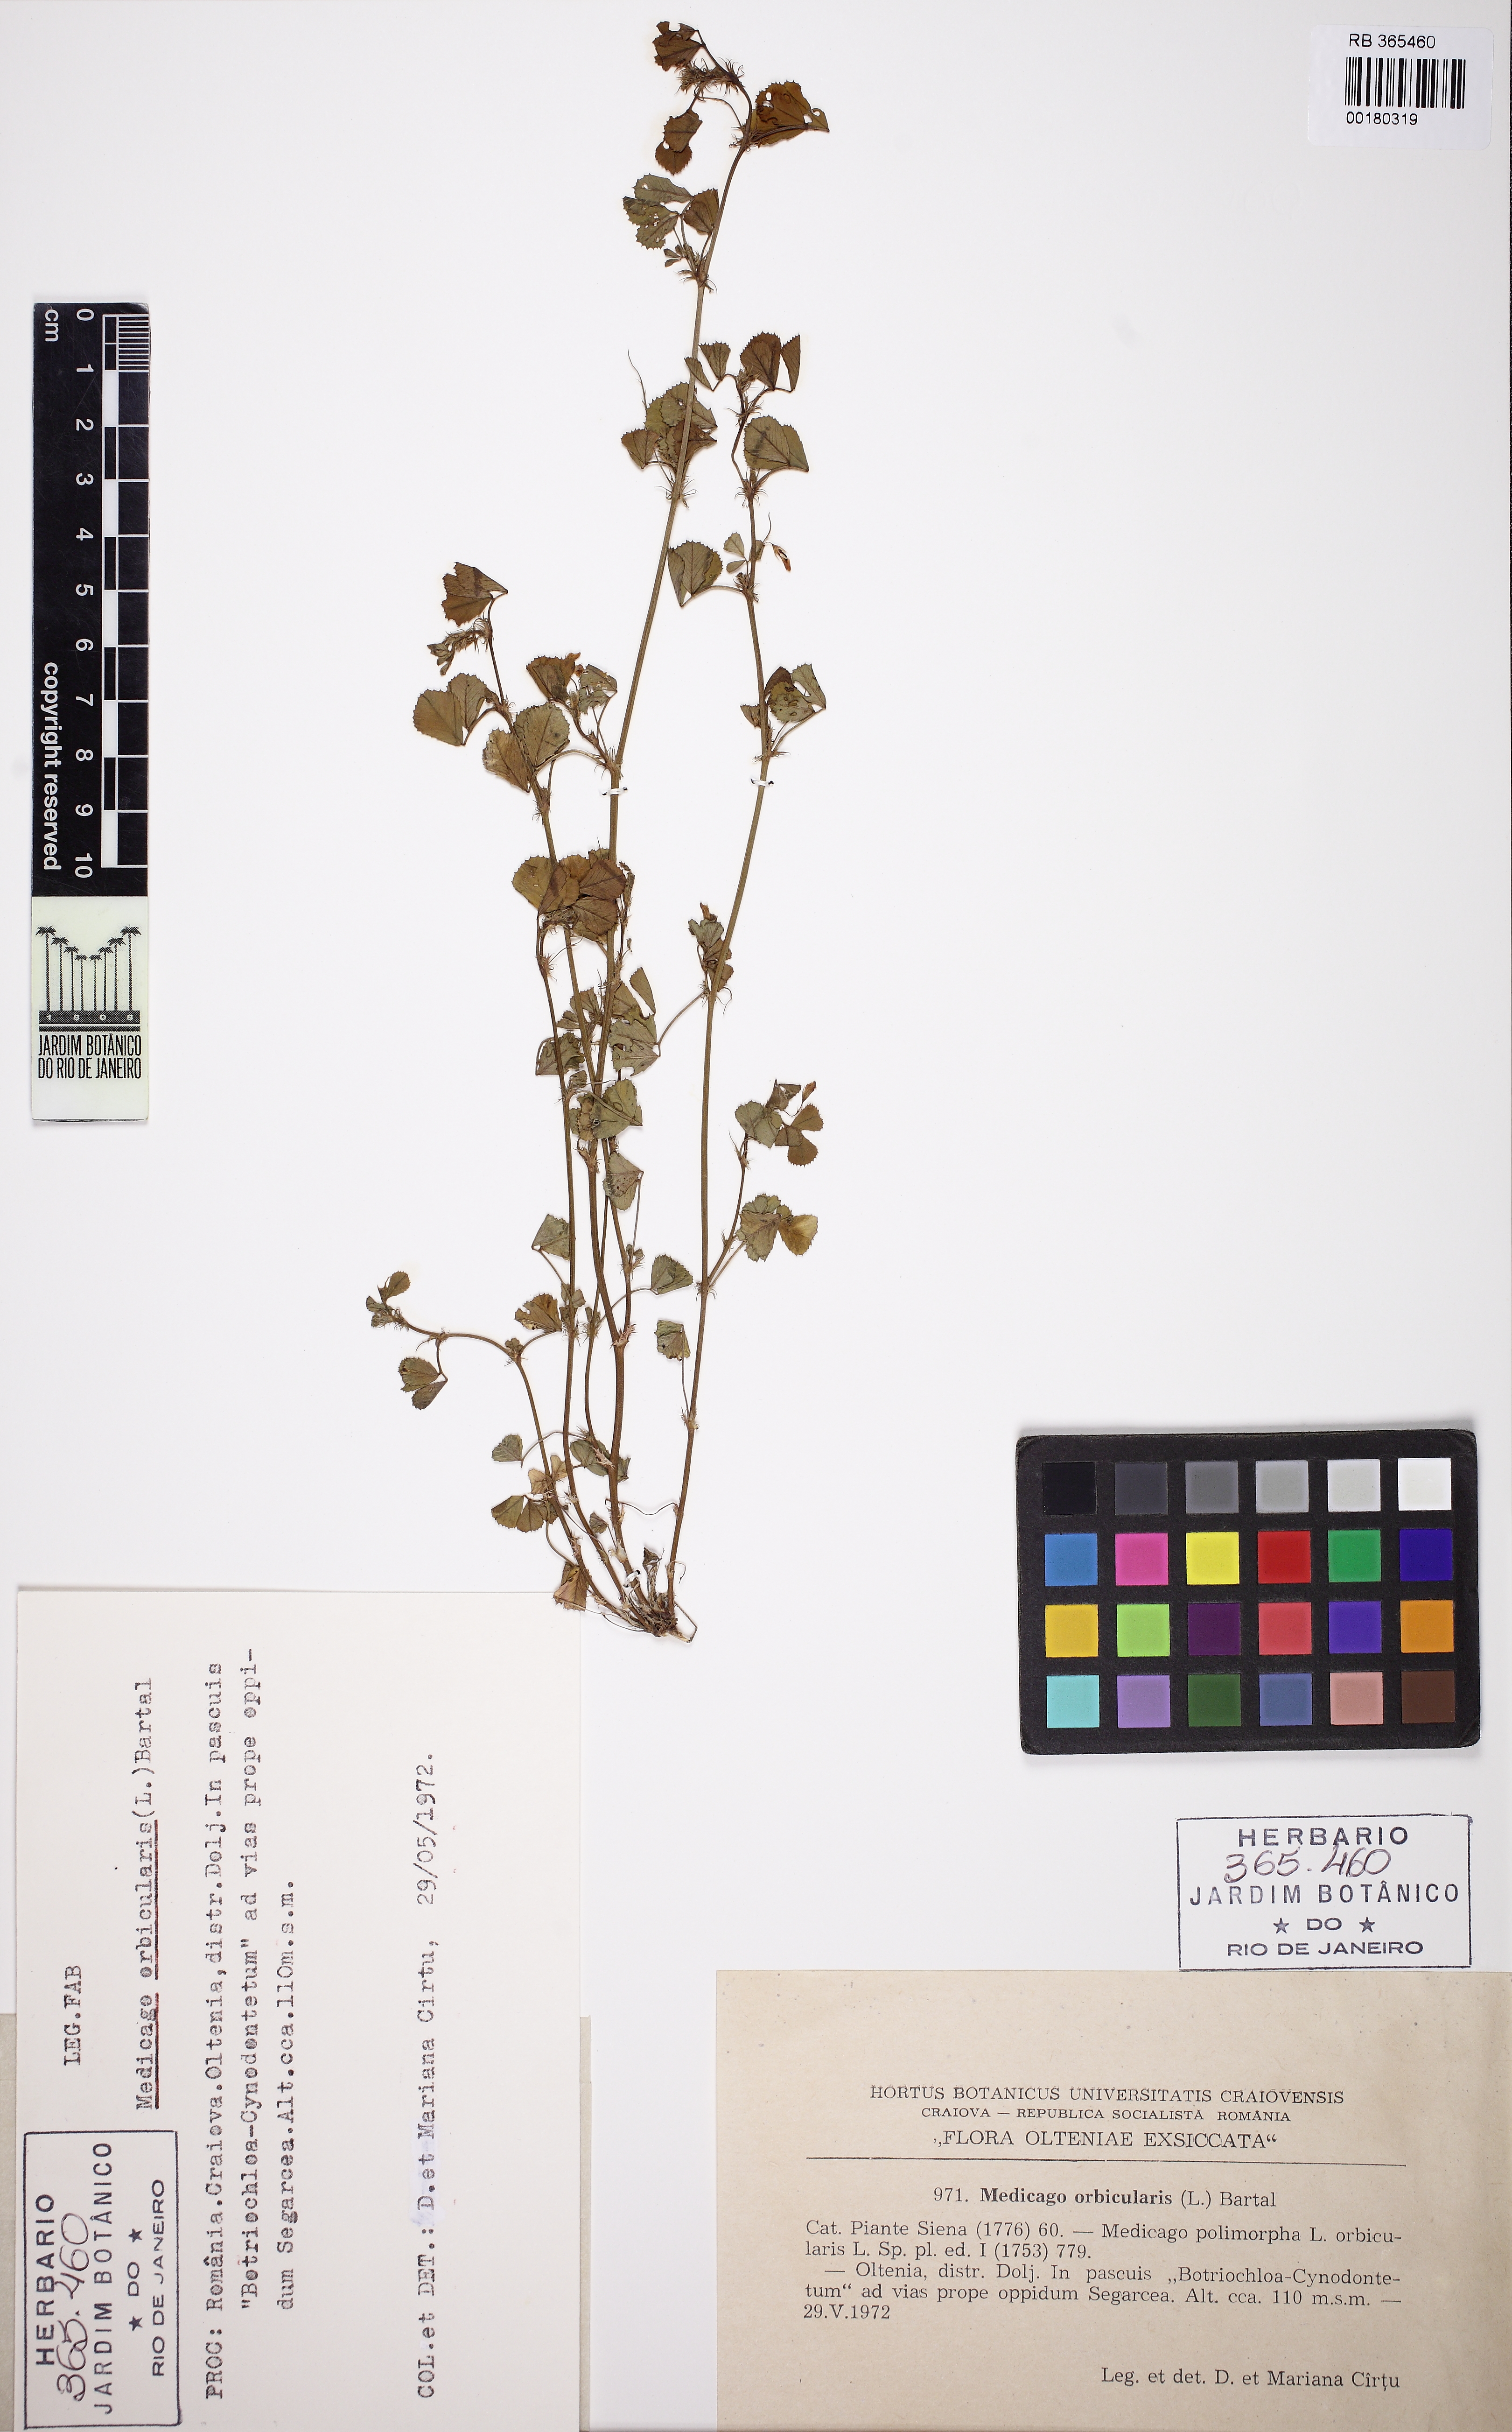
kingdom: Plantae
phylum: Tracheophyta
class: Magnoliopsida
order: Fabales
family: Fabaceae
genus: Medicago
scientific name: Medicago orbicularis
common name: Button medick
